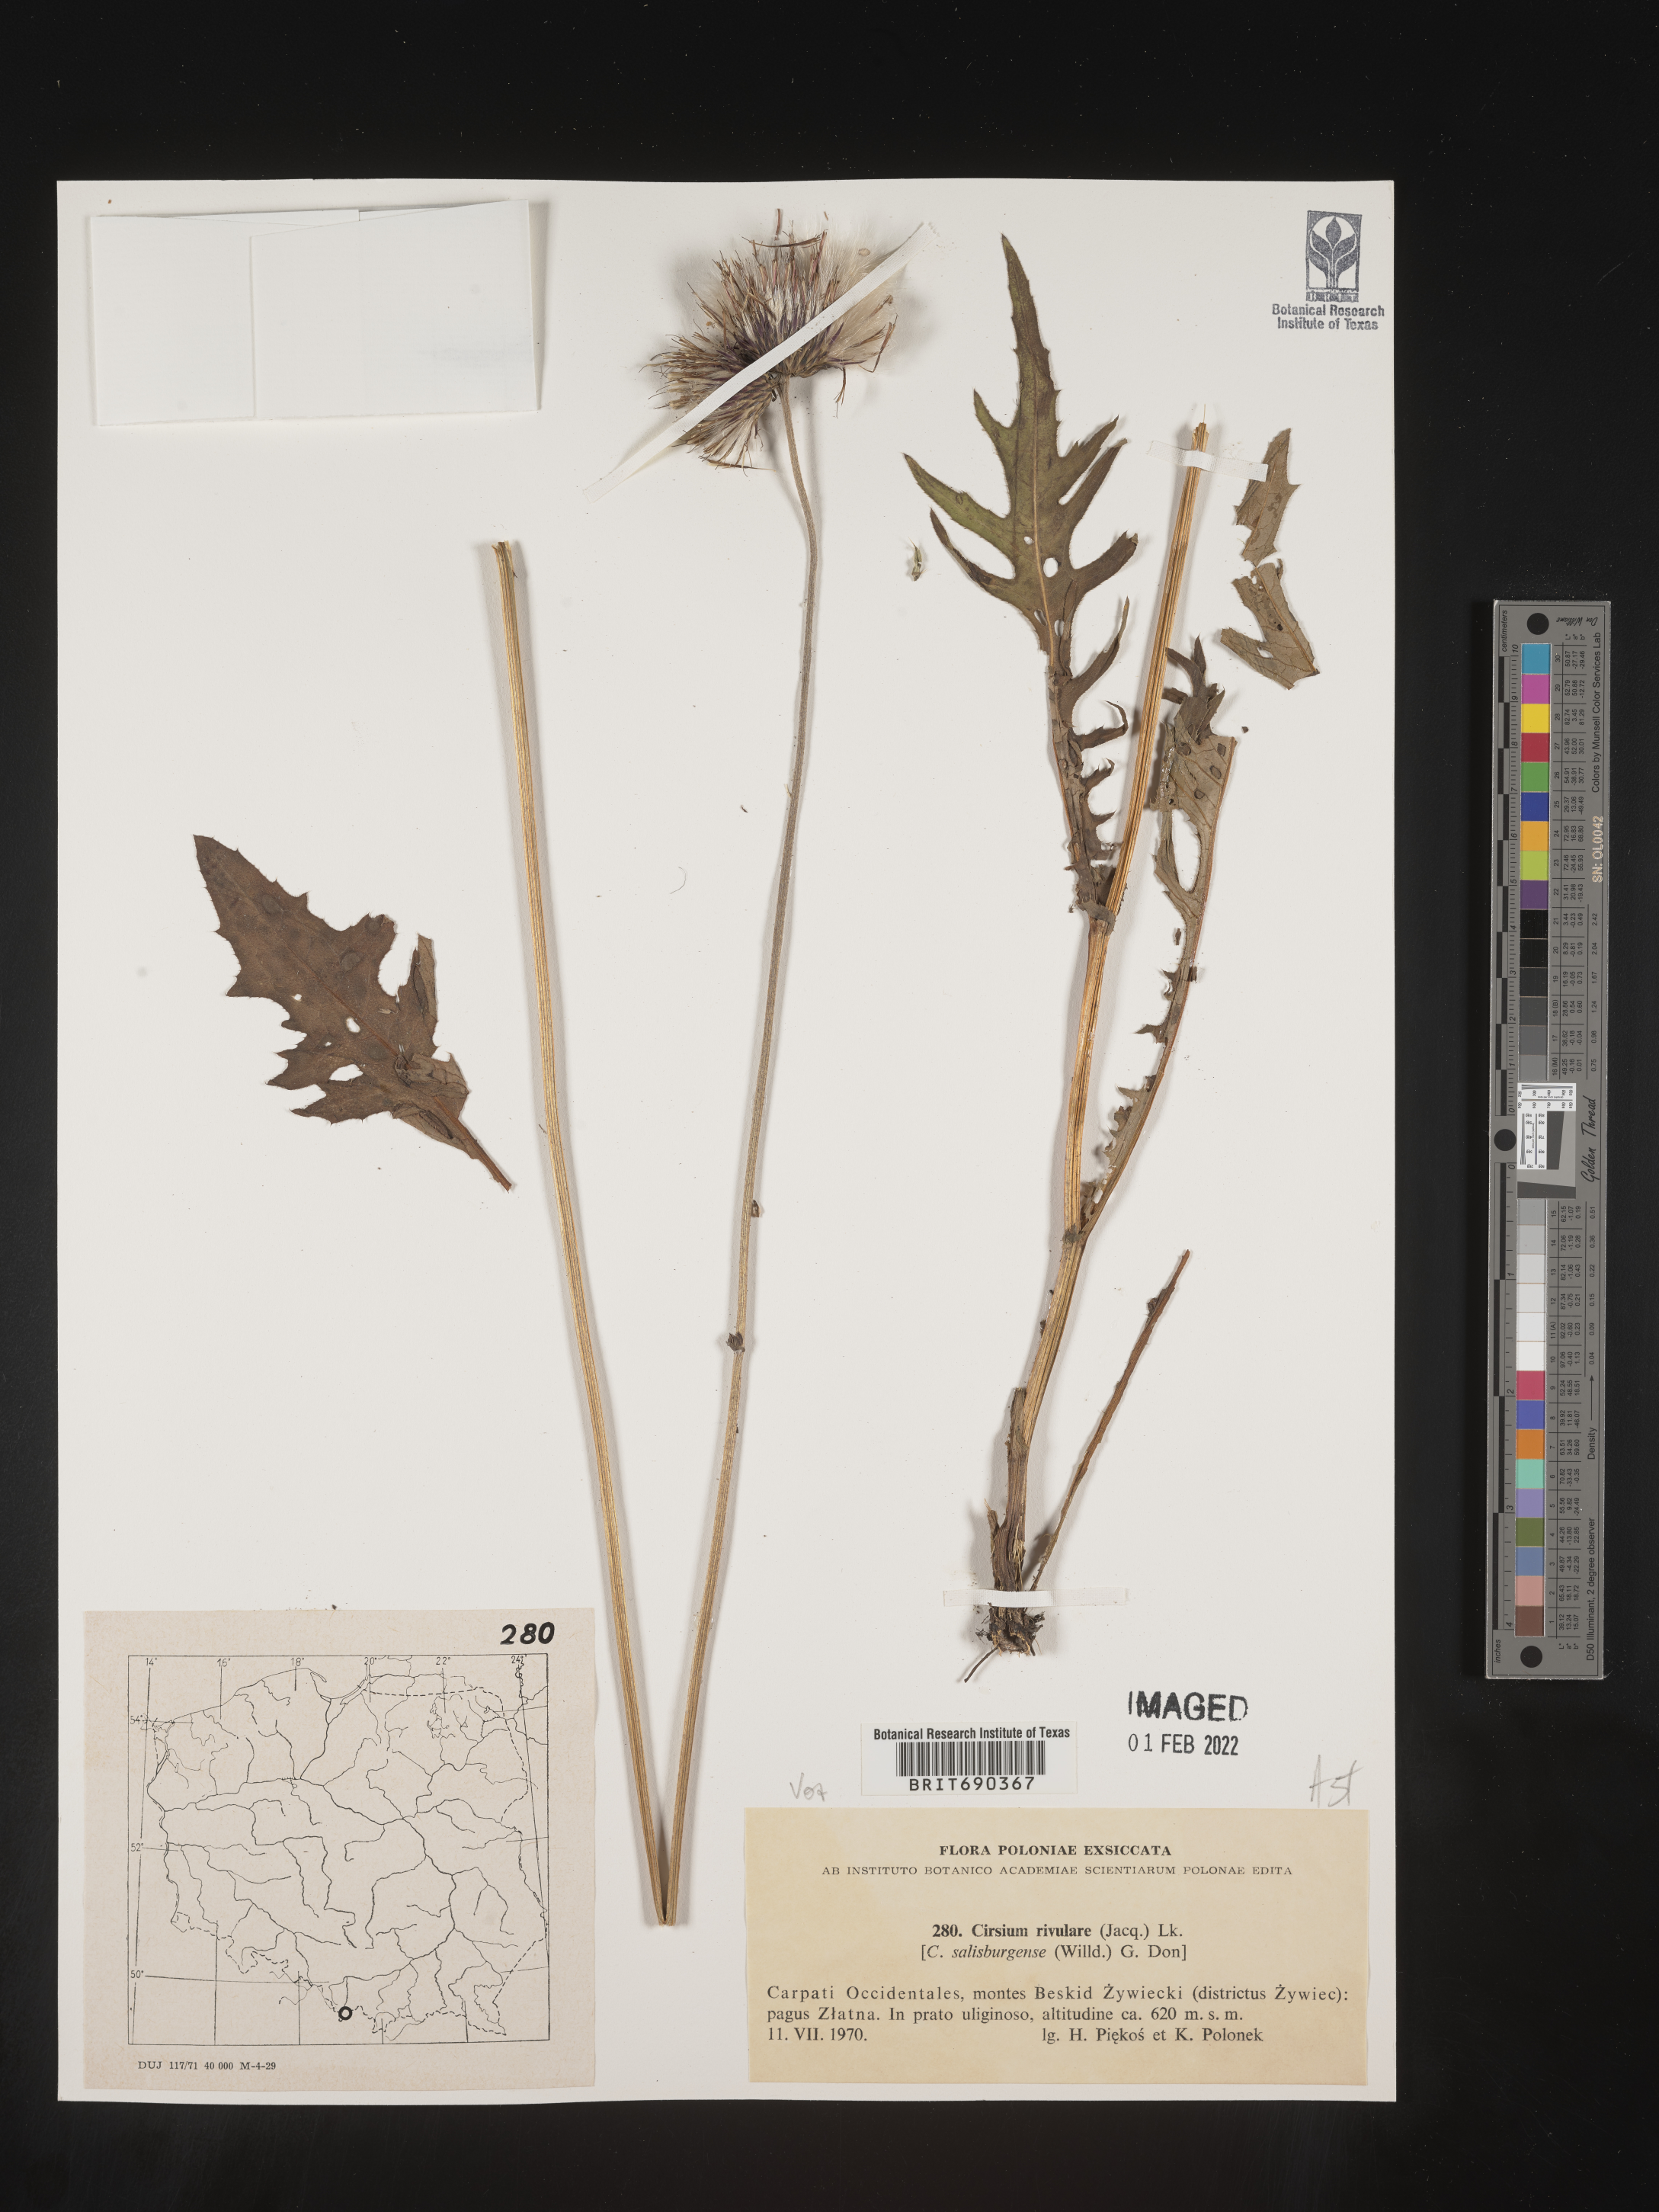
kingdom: Plantae
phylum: Tracheophyta
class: Magnoliopsida
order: Asterales
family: Asteraceae
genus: Cirsium
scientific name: Cirsium
